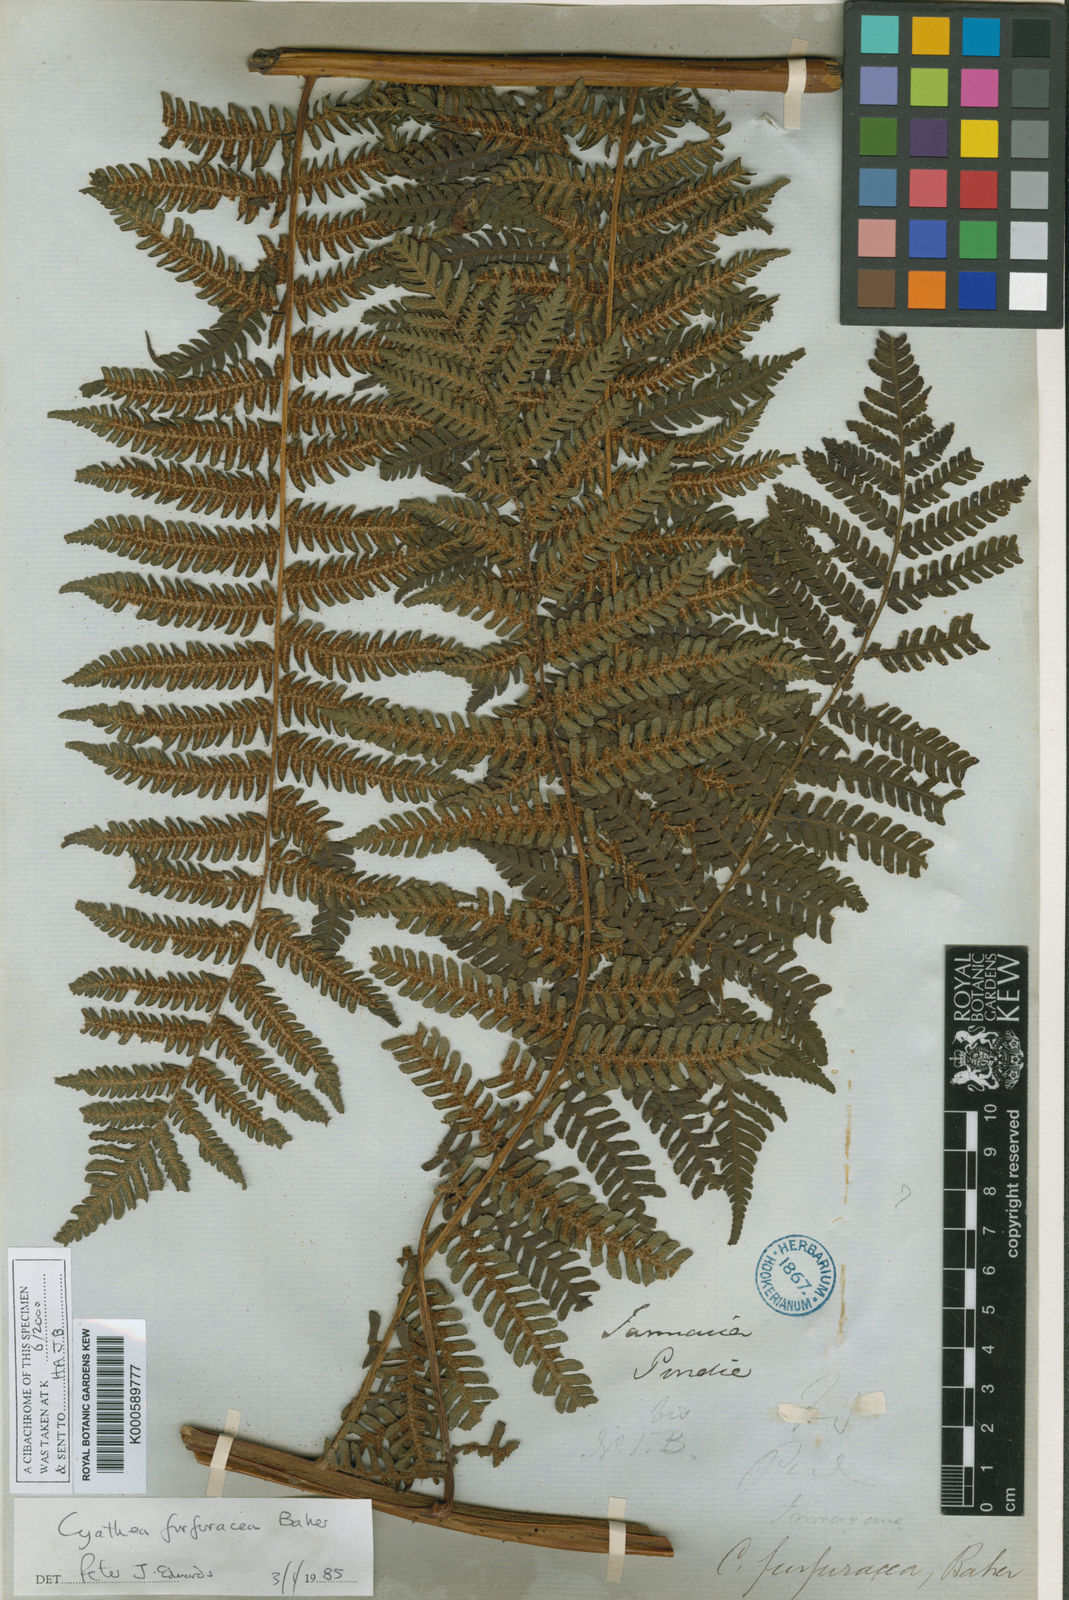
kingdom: Plantae
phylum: Tracheophyta
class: Polypodiopsida
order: Cyatheales
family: Cyatheaceae
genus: Alsophila
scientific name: Alsophila fulgens
